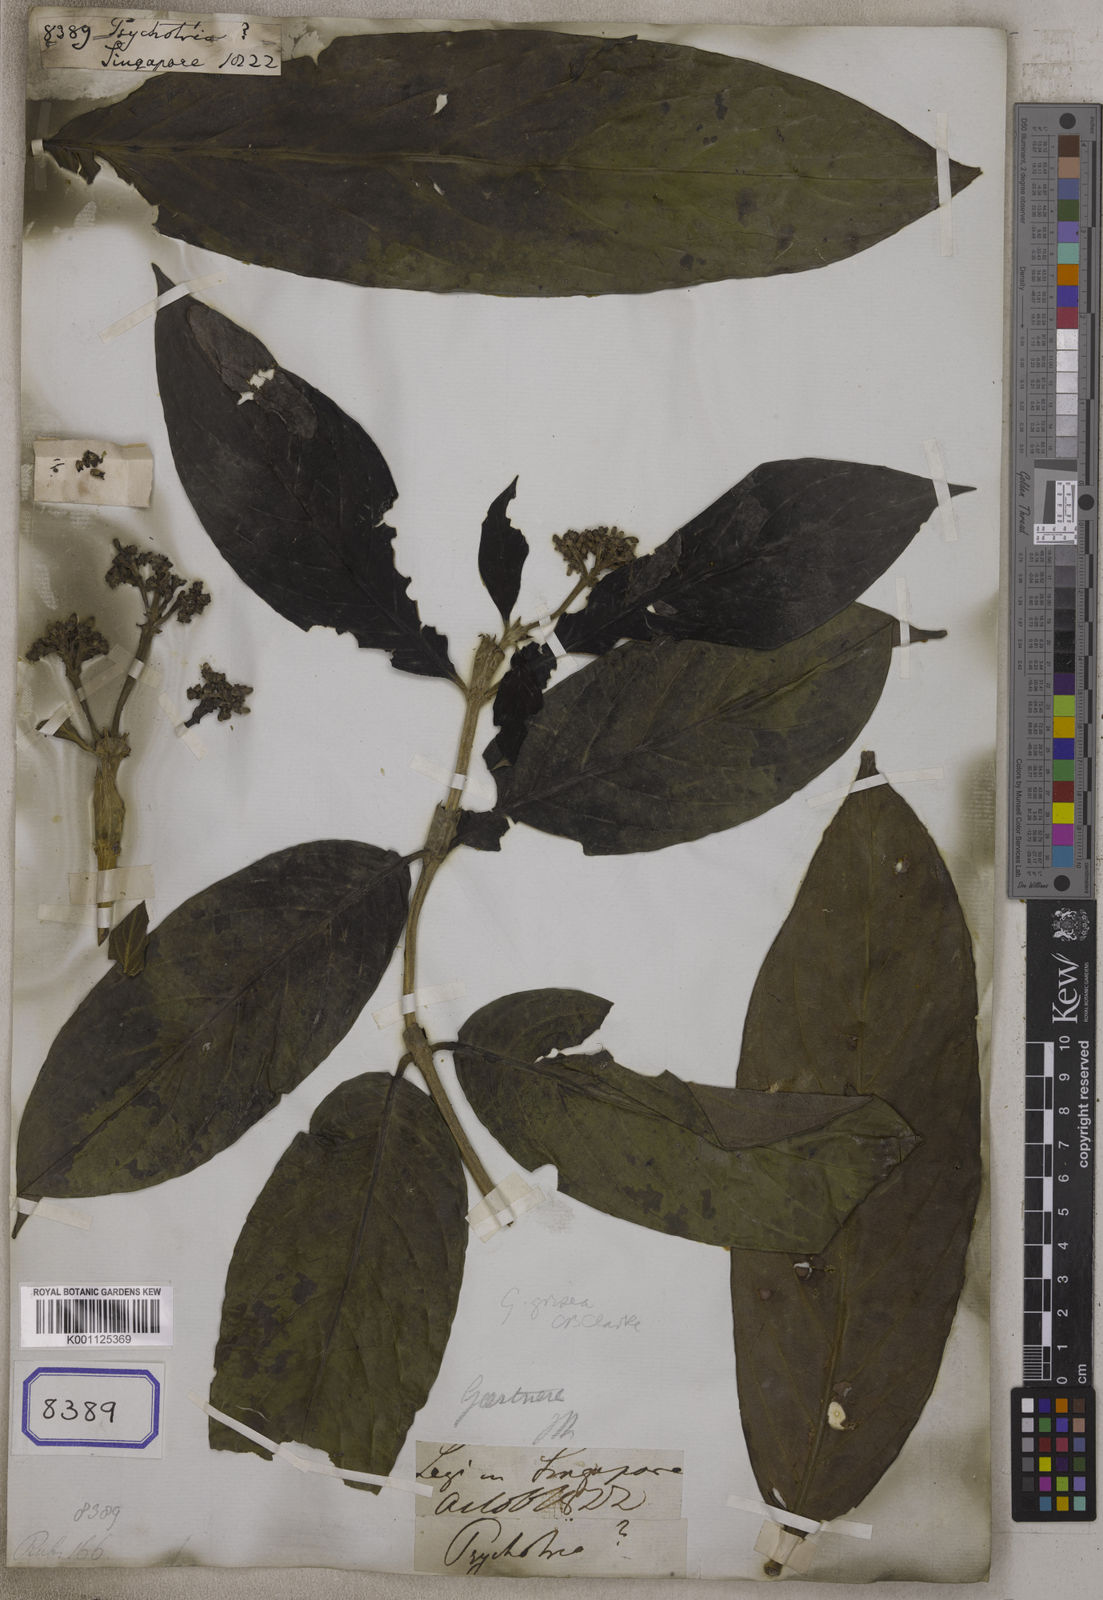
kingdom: Plantae
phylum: Tracheophyta
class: Magnoliopsida
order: Gentianales
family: Rubiaceae
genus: Psychotria
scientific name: Psychotria
